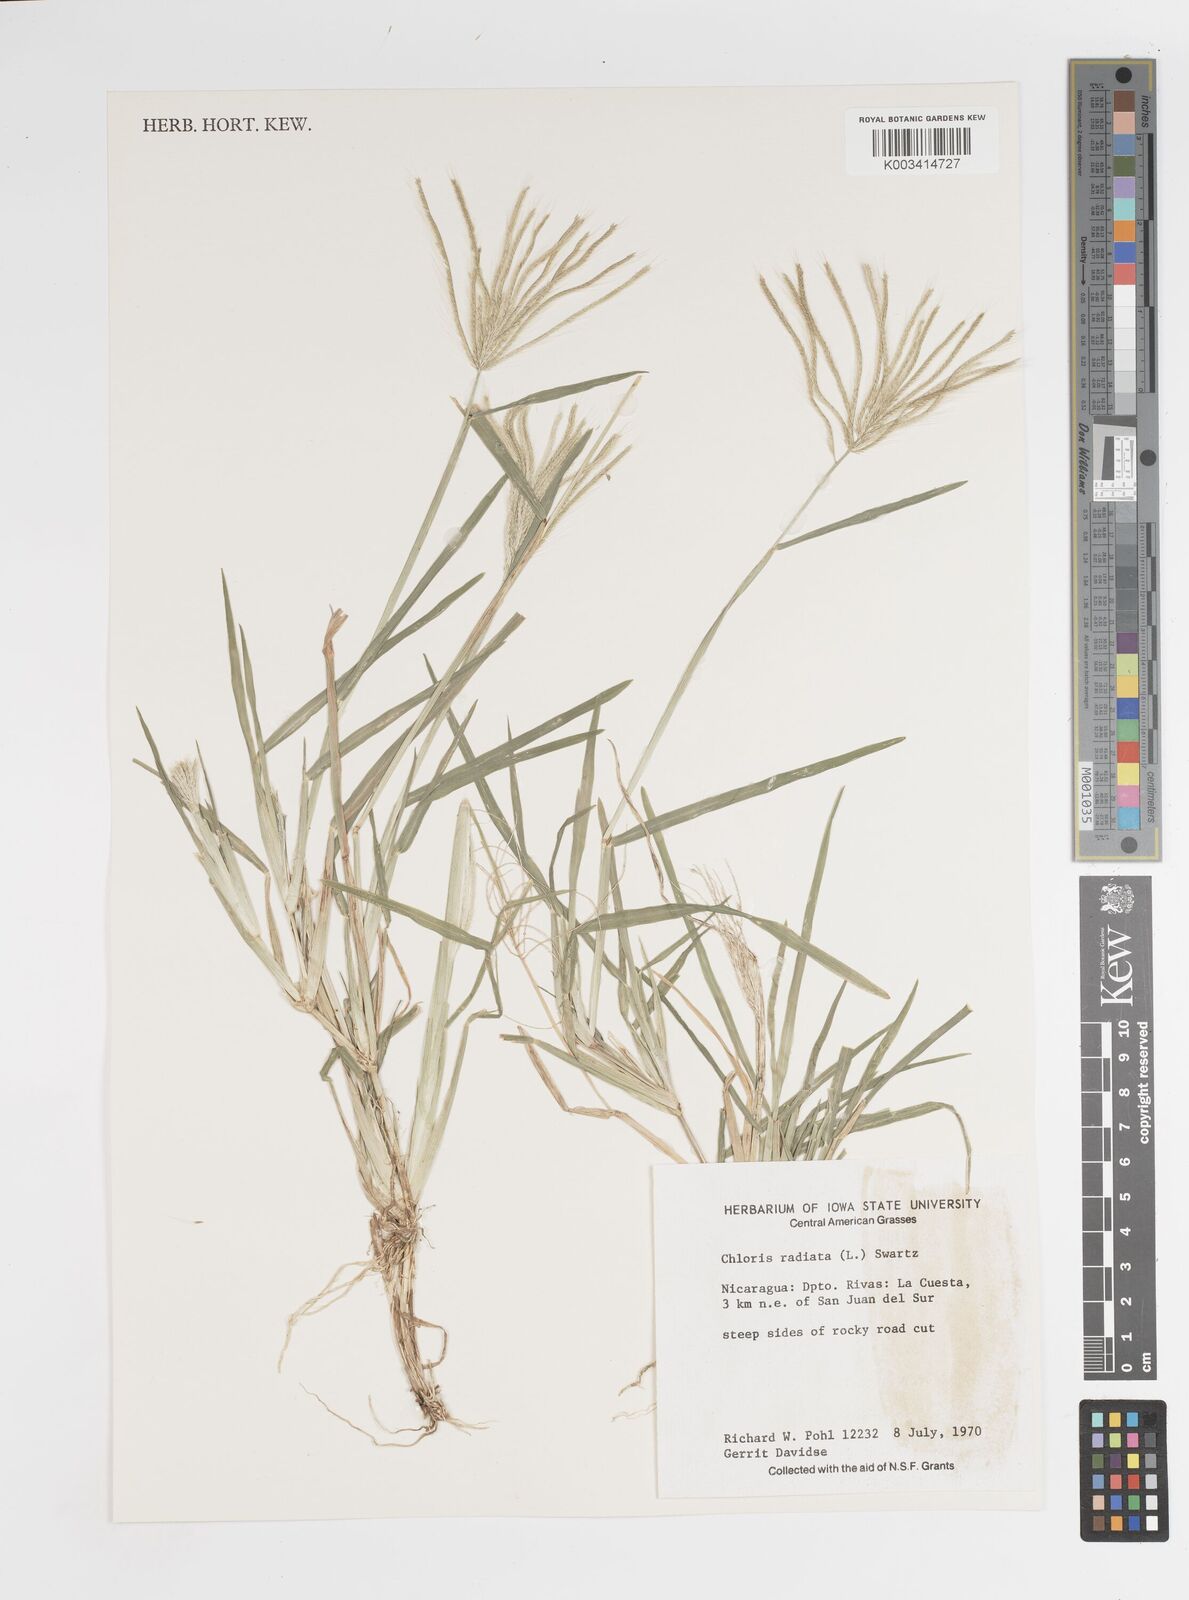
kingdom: Plantae
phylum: Tracheophyta
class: Liliopsida
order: Poales
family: Poaceae
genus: Chloris
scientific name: Chloris radiata
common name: Radiate fingergrass
